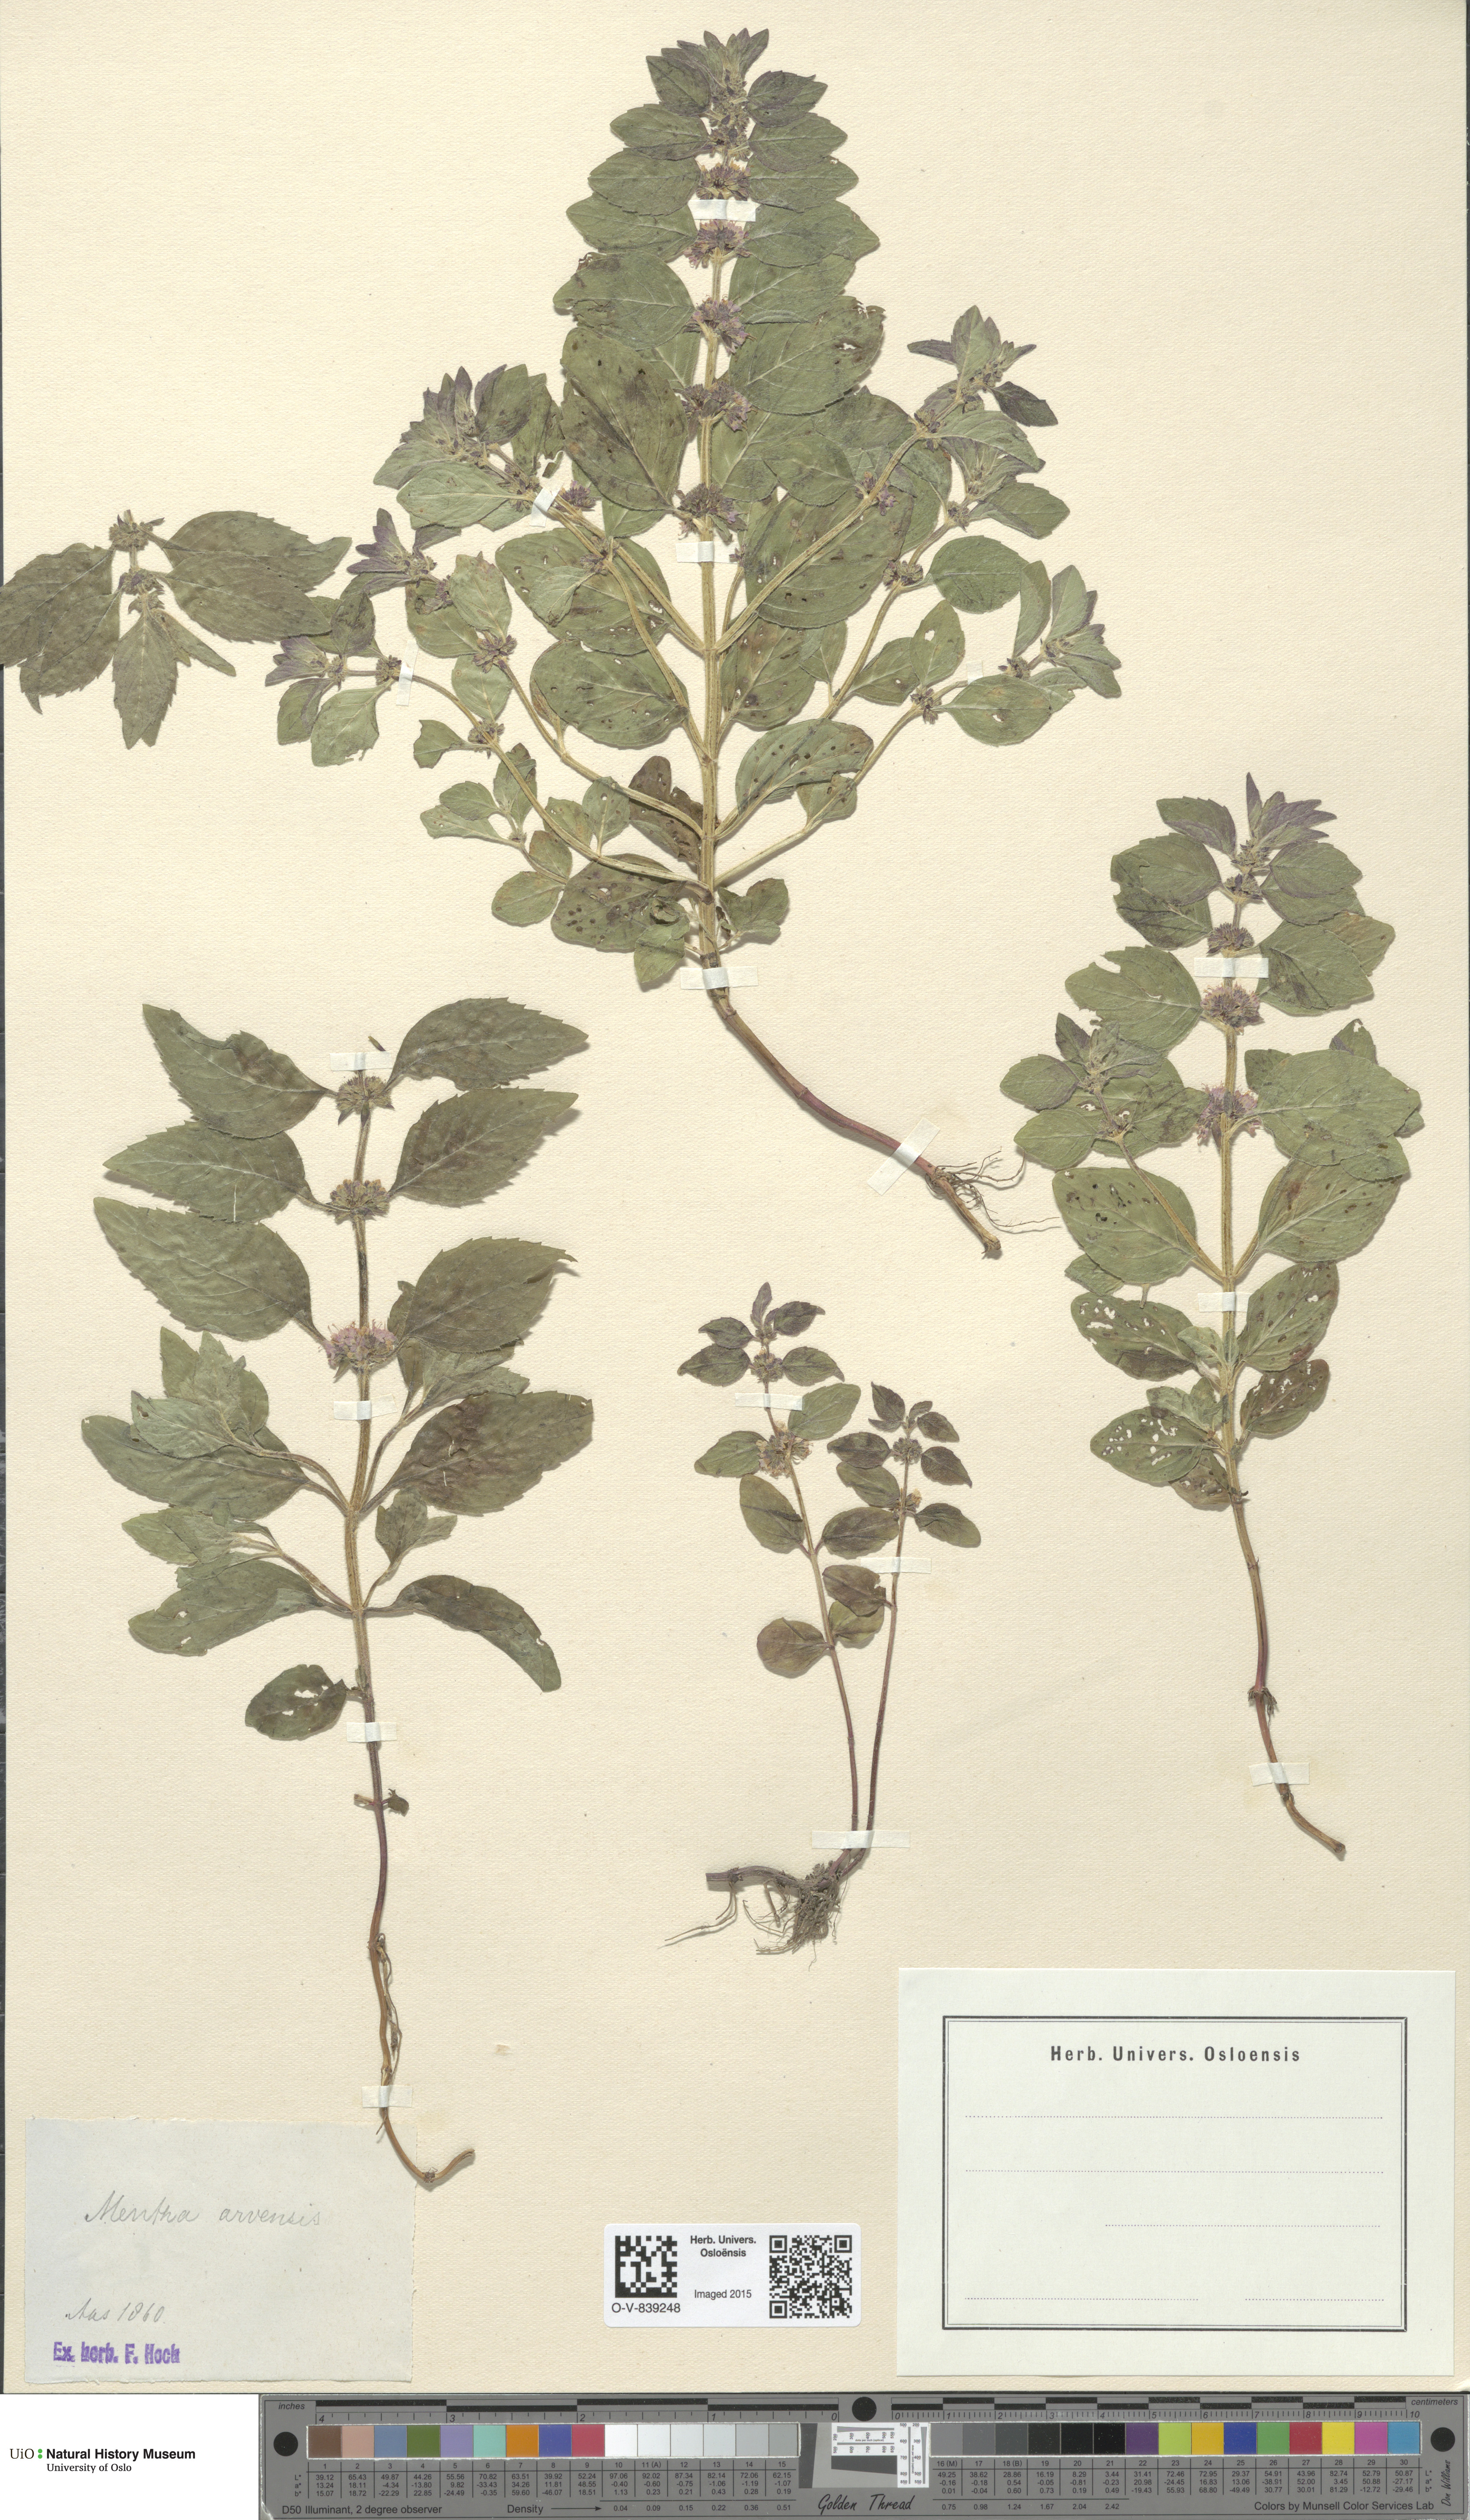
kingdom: Plantae
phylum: Tracheophyta
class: Magnoliopsida
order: Lamiales
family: Lamiaceae
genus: Mentha
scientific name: Mentha arvensis
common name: Corn mint
